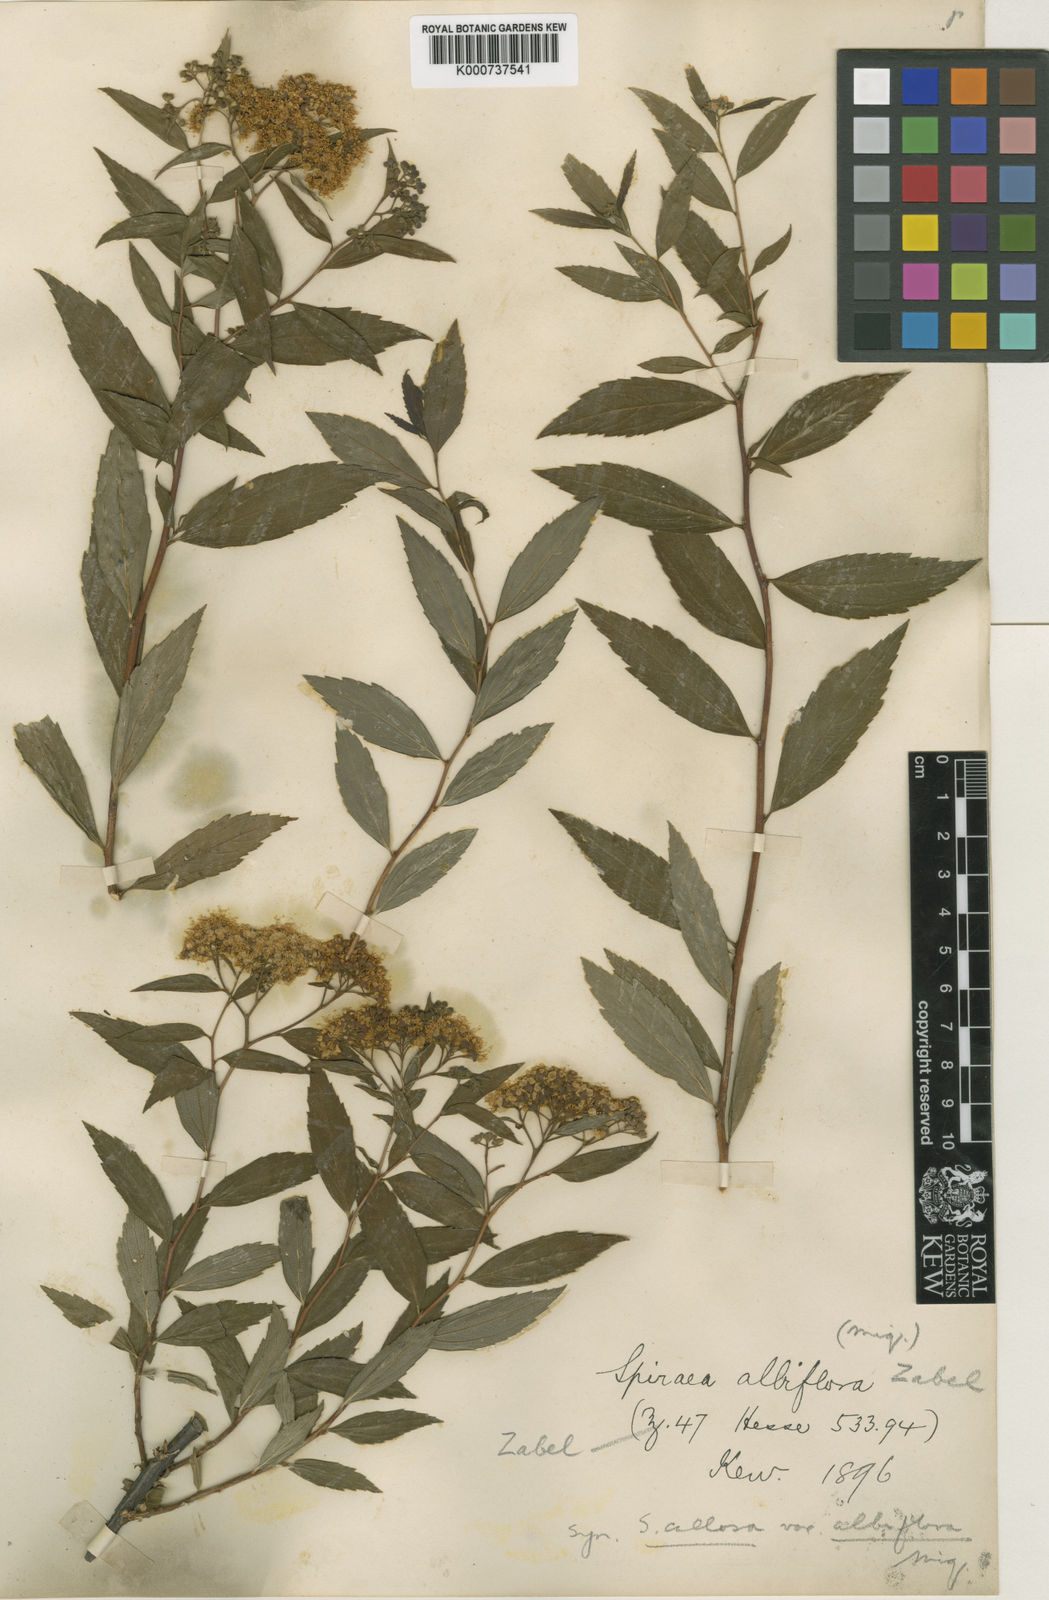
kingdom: Plantae
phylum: Tracheophyta
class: Magnoliopsida
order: Rosales
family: Rosaceae
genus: Spiraea
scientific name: Spiraea japonica
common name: Japanese spiraea
